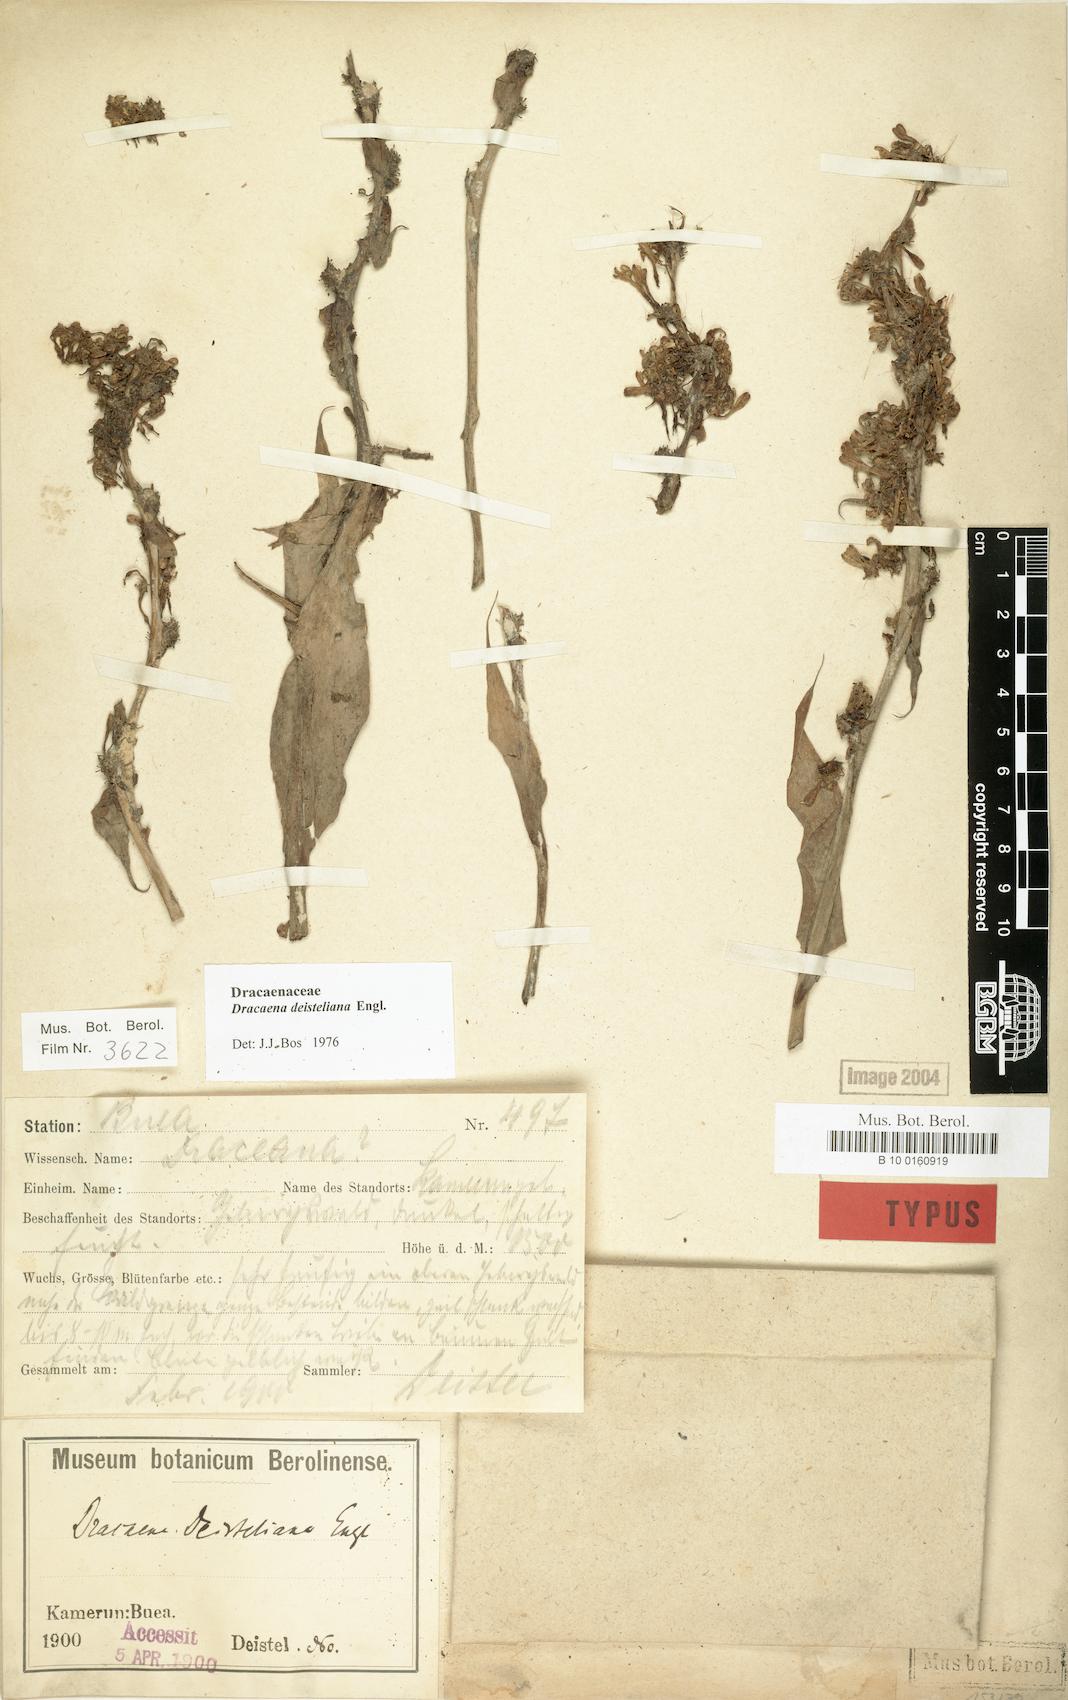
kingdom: Plantae
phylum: Tracheophyta
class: Liliopsida
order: Asparagales
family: Asparagaceae
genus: Dracaena
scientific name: Dracaena fragrans
